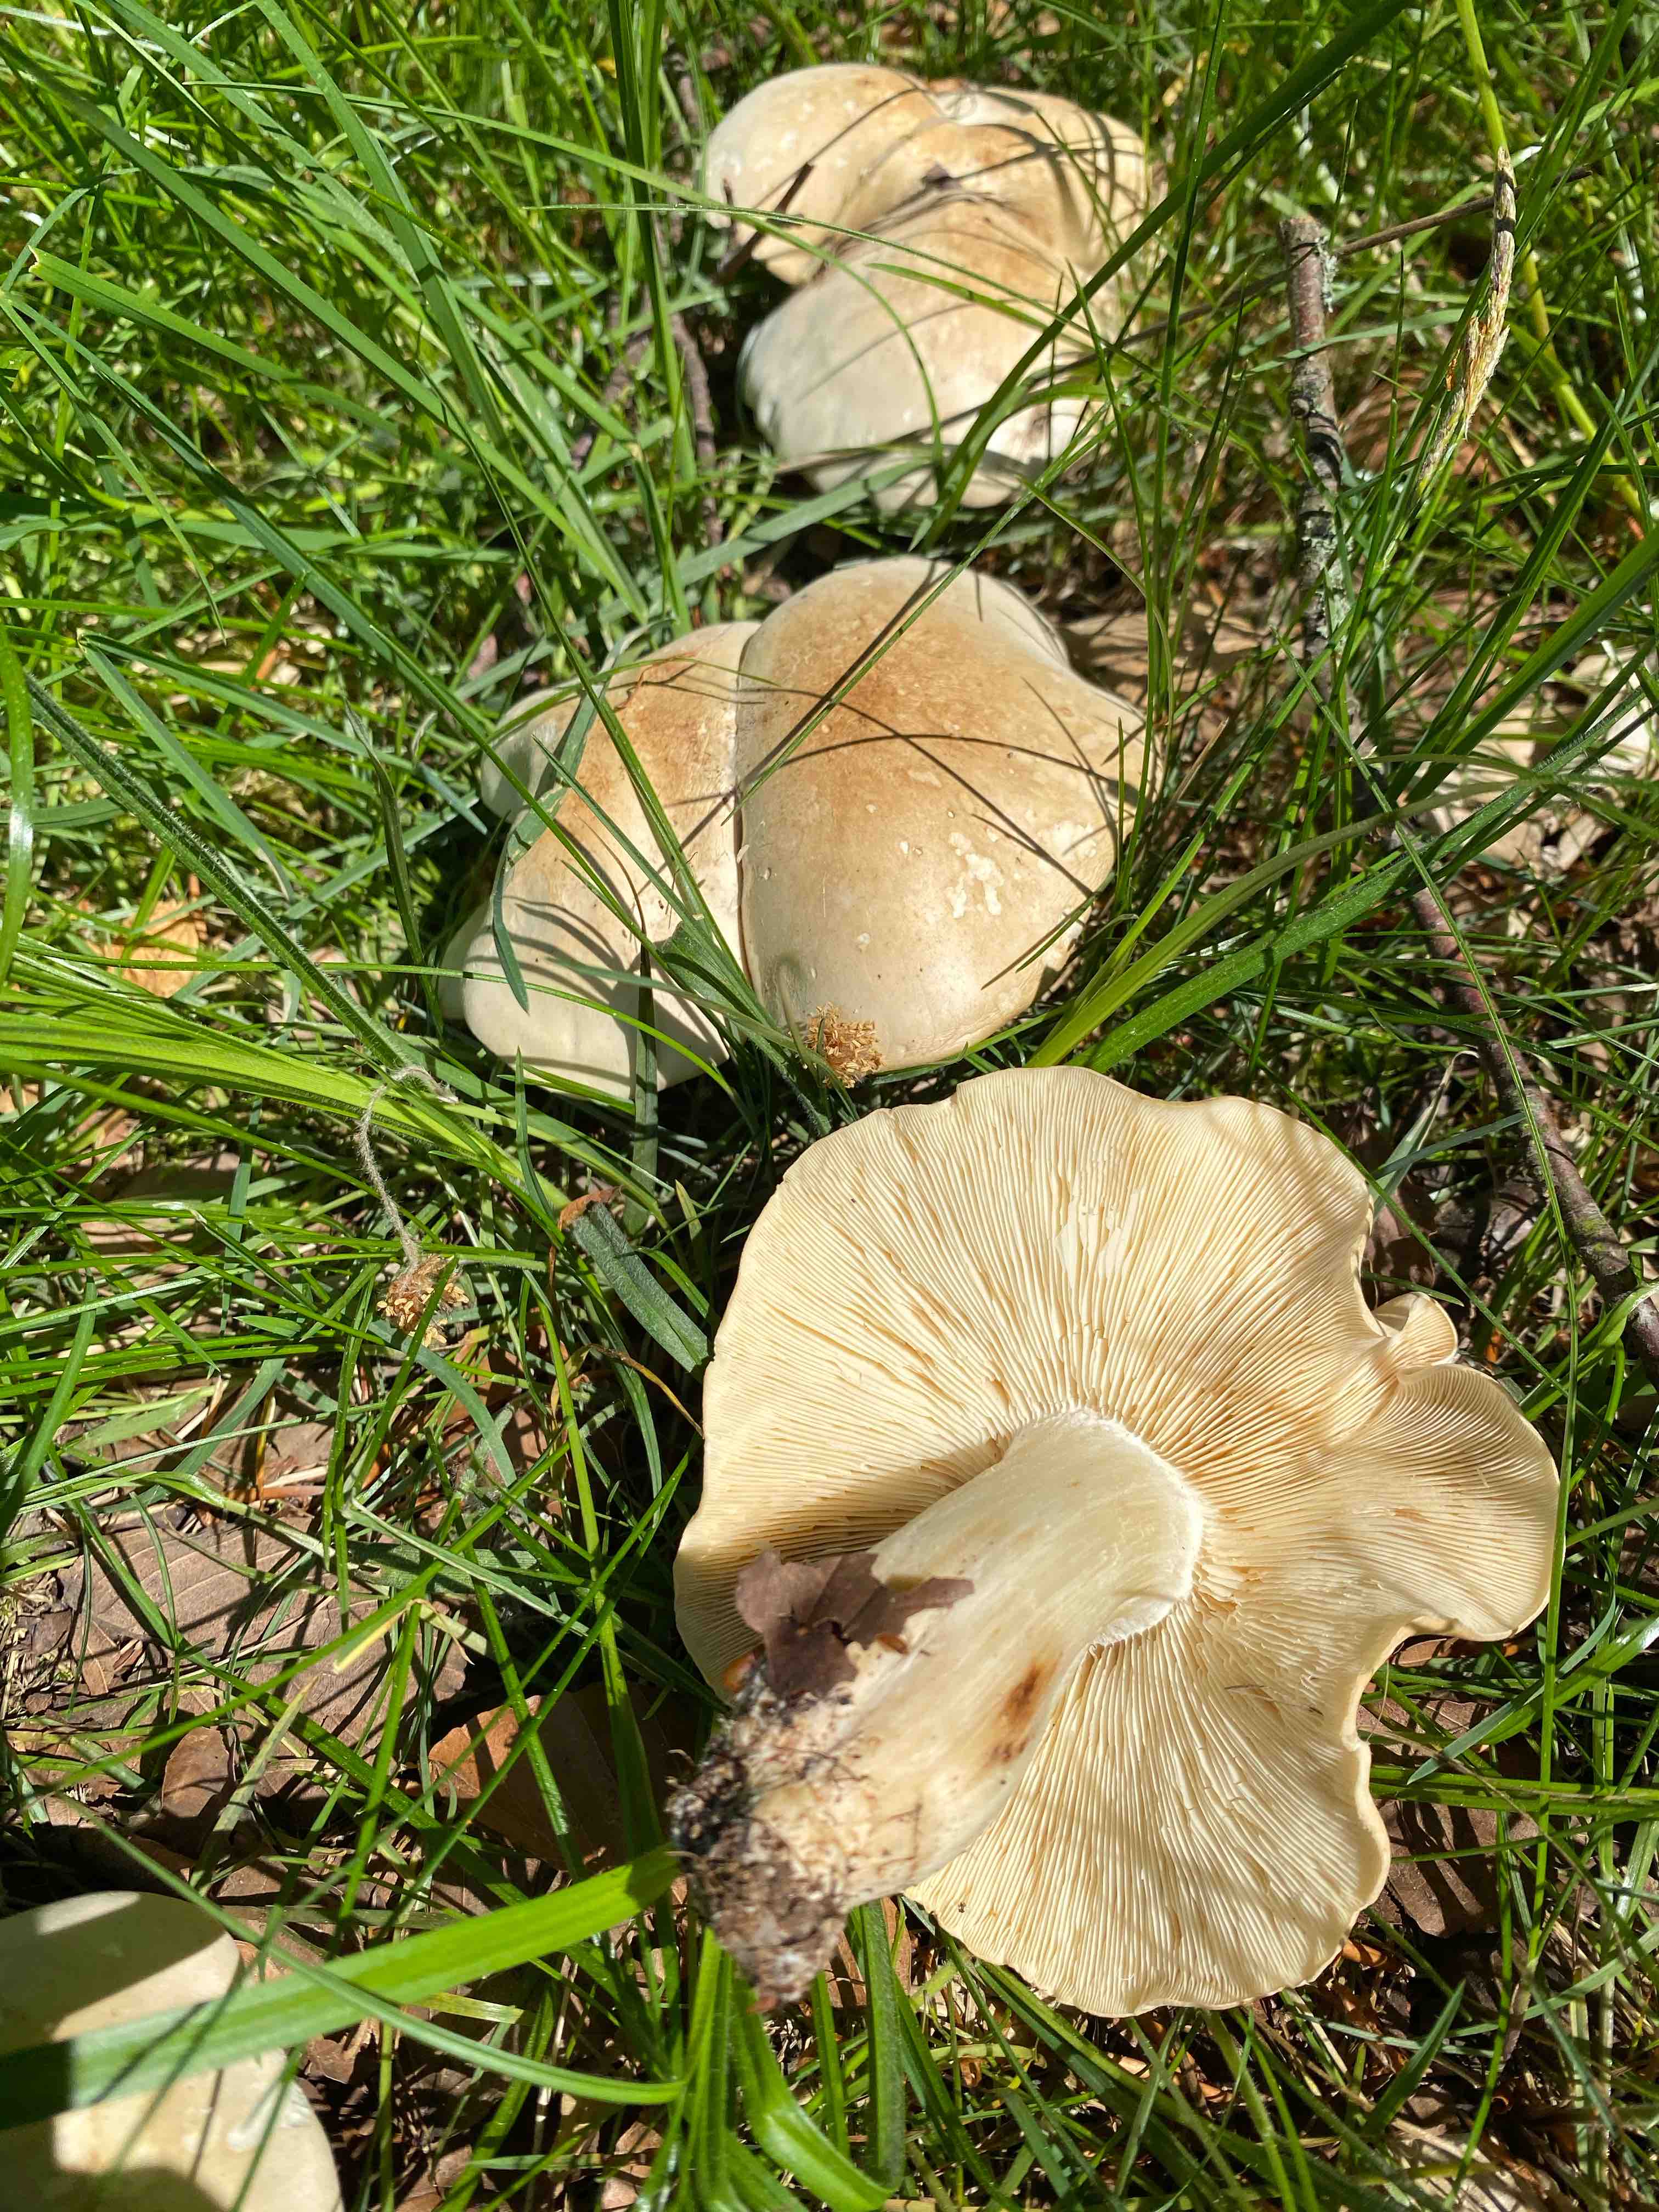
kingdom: Fungi
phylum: Basidiomycota
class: Agaricomycetes
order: Agaricales
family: Lyophyllaceae
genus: Calocybe
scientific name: Calocybe gambosa
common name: vårmusseron
